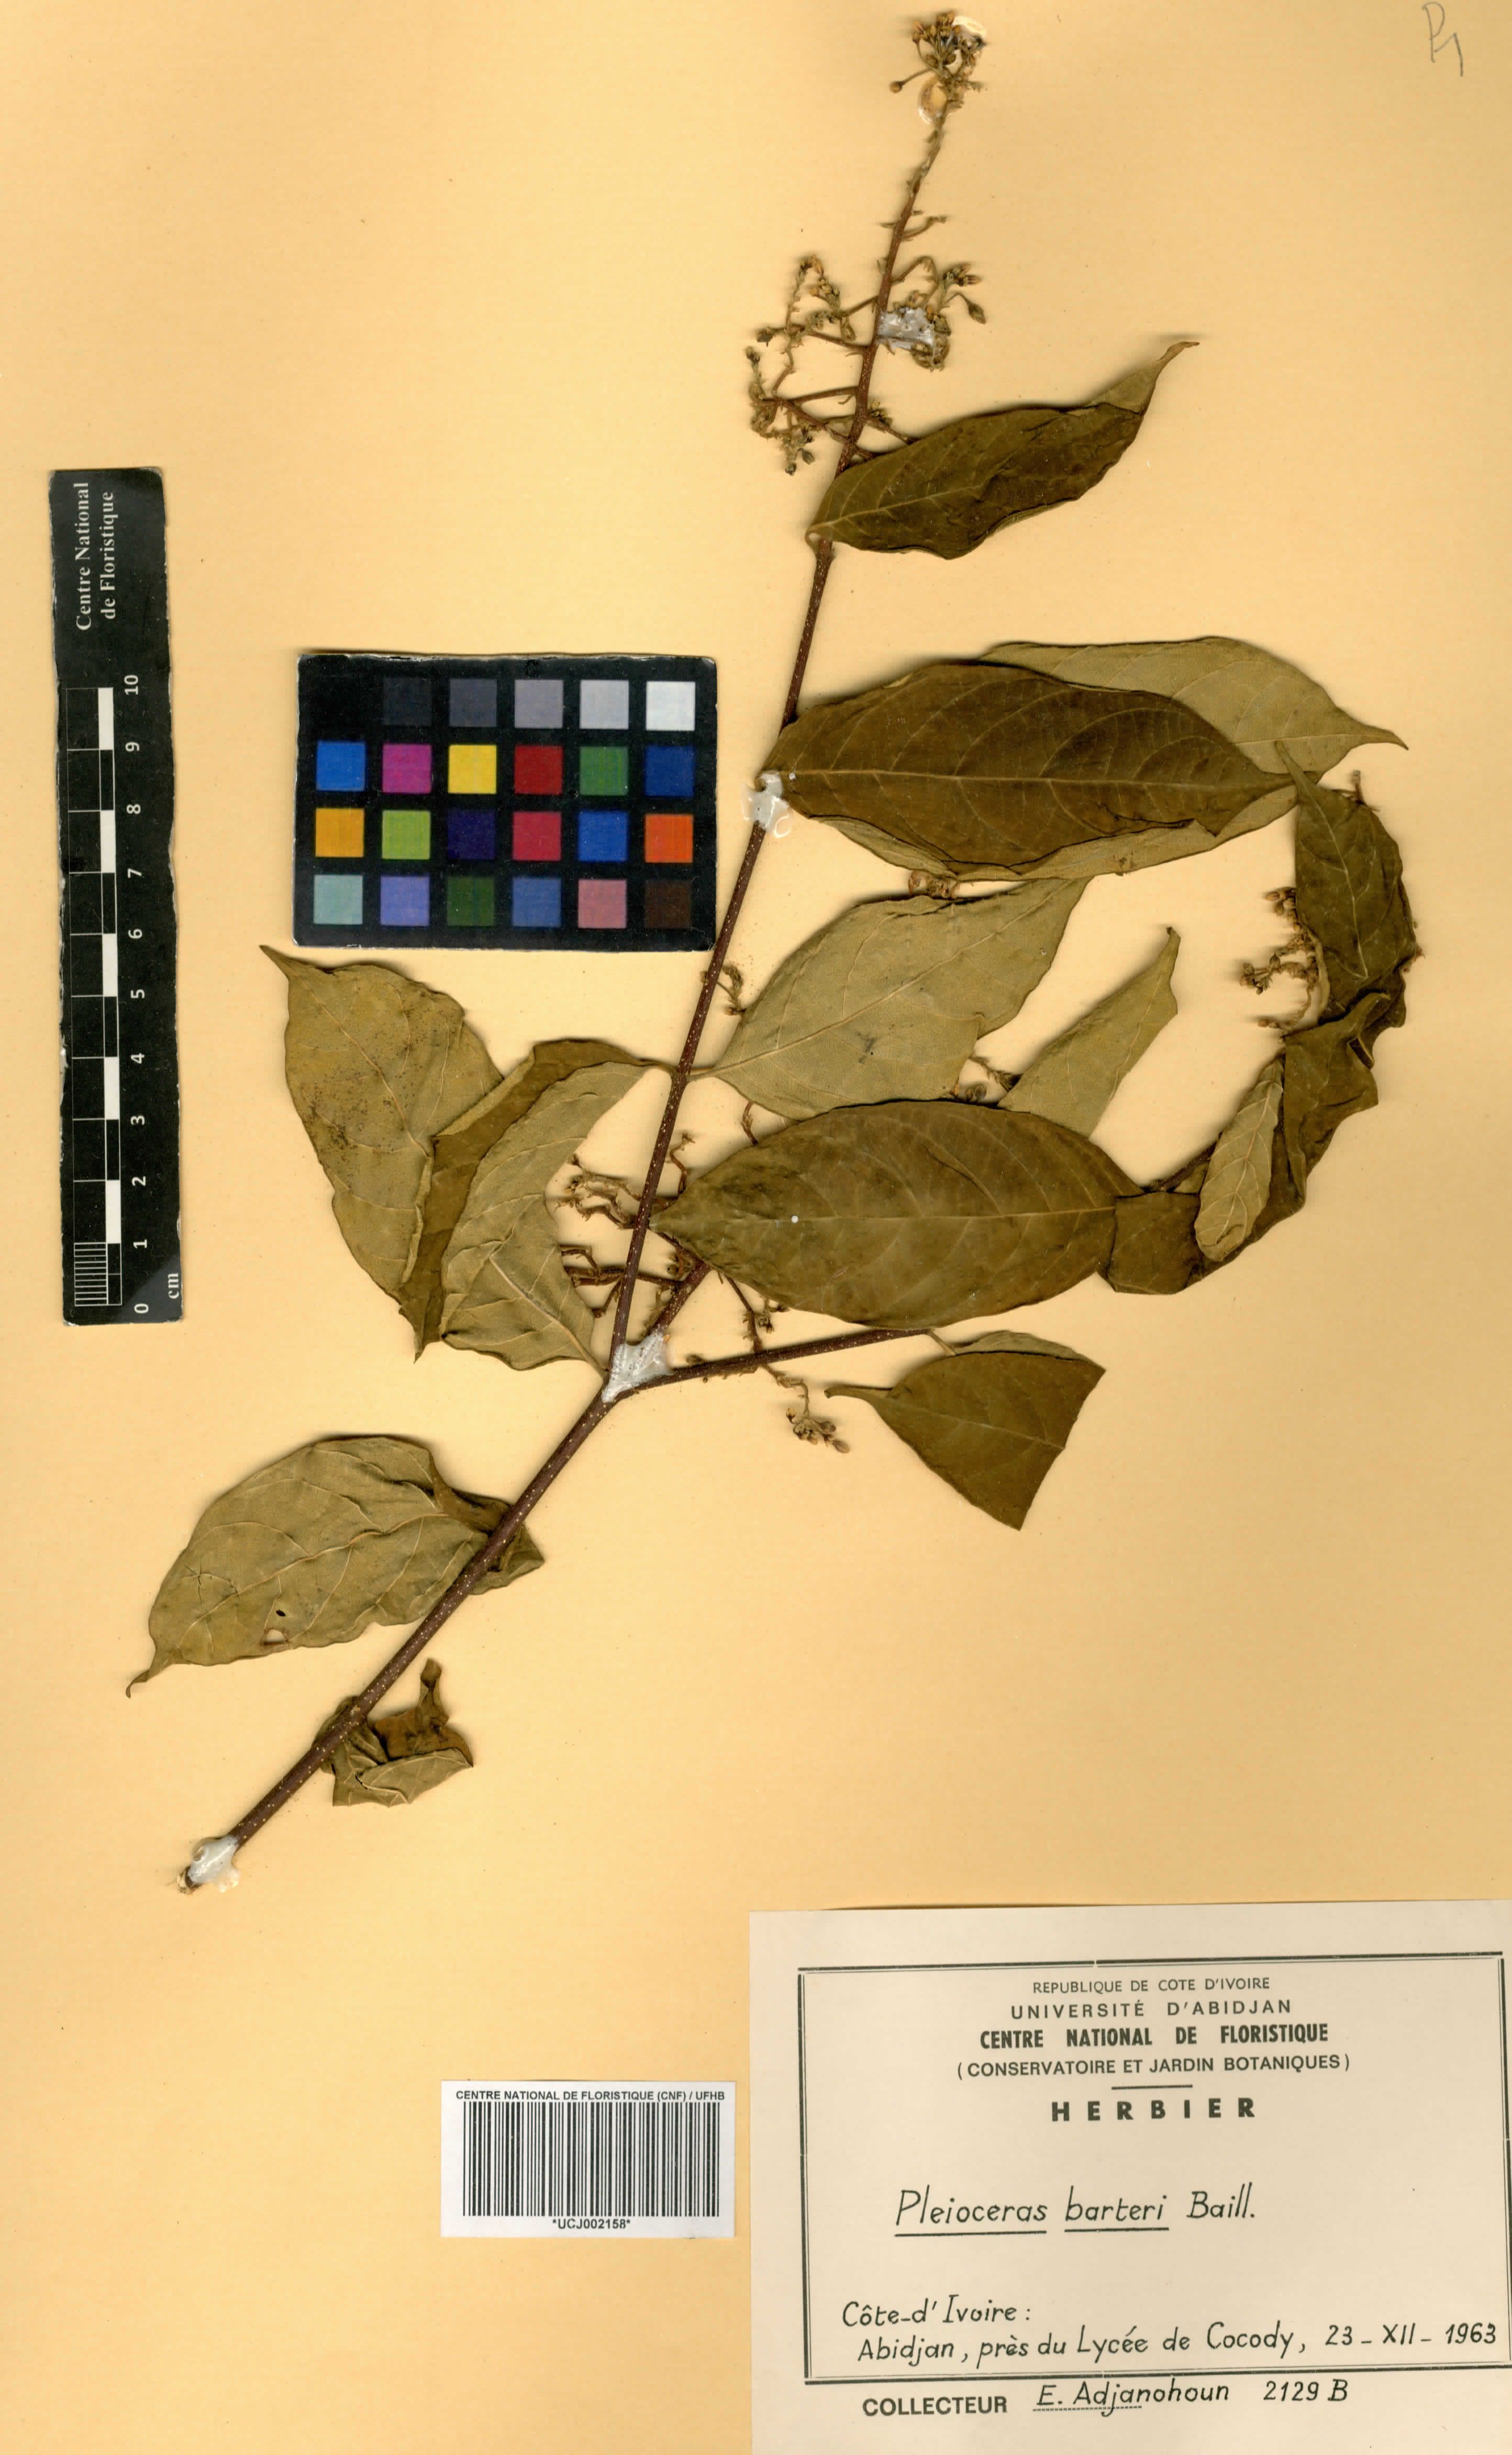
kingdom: Plantae
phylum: Tracheophyta
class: Magnoliopsida
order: Gentianales
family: Apocynaceae
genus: Pleioceras
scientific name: Pleioceras barteri
